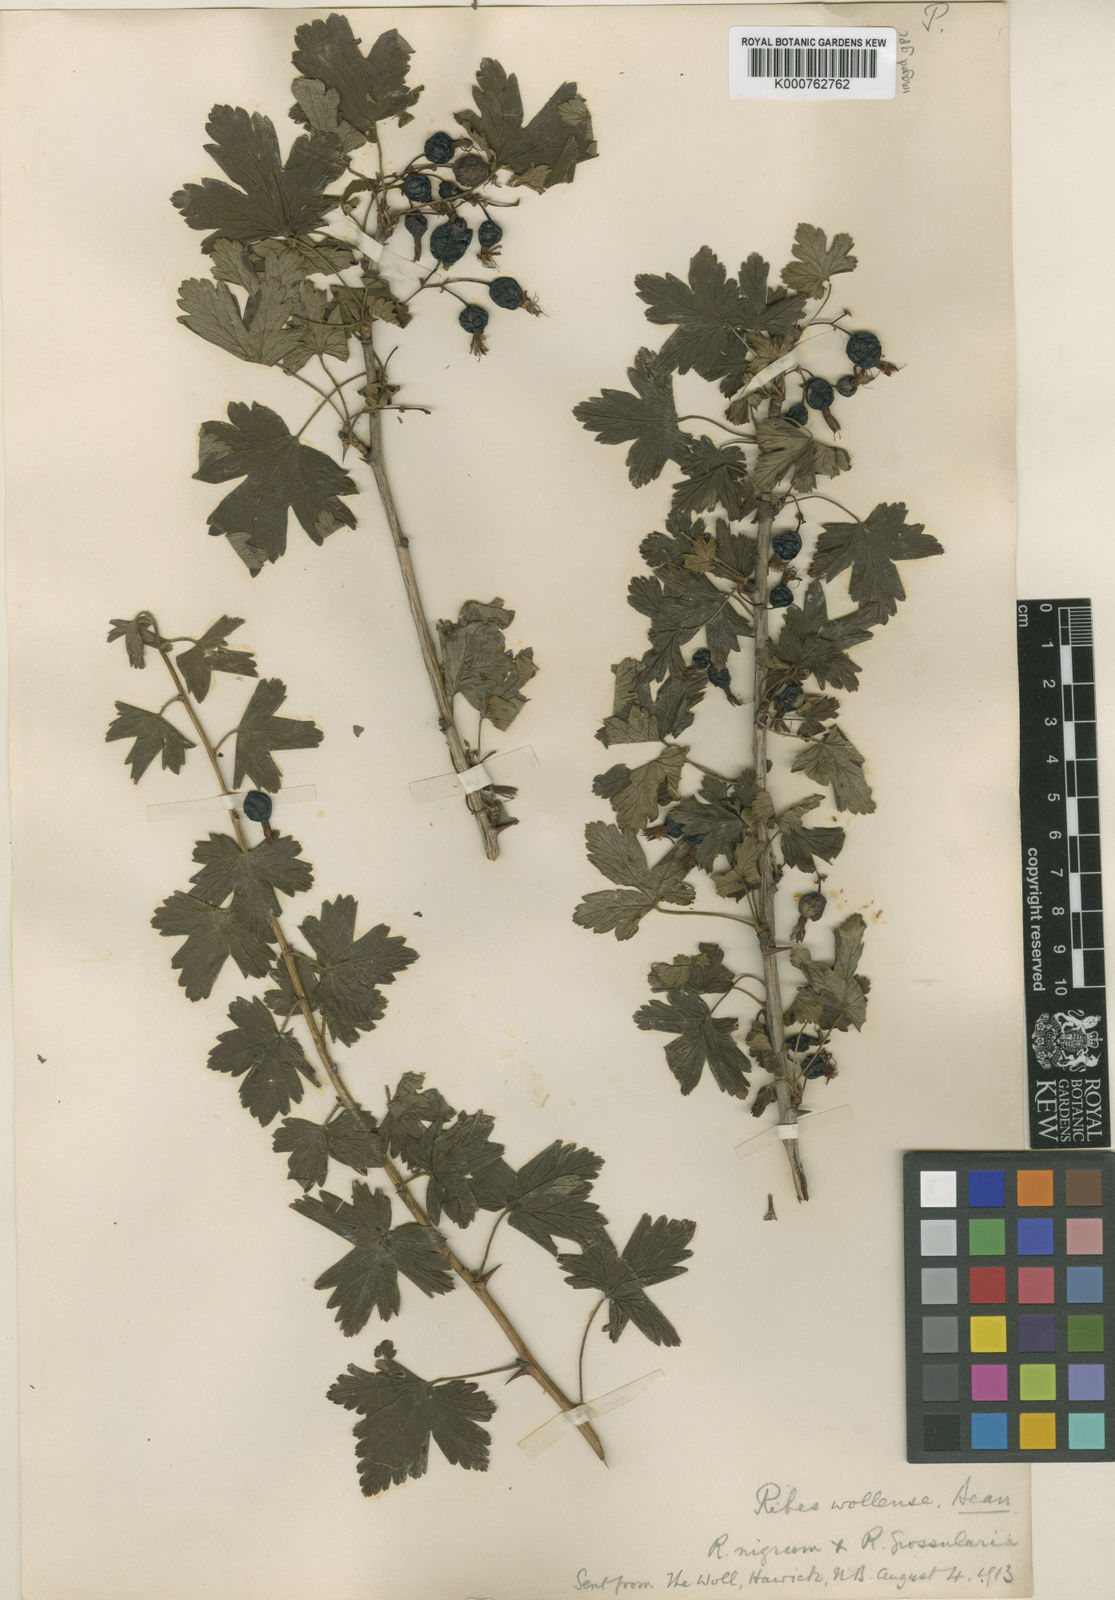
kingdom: Plantae
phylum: Tracheophyta
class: Magnoliopsida
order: Saxifragales
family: Grossulariaceae
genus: Ribes
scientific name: Ribes divaricatum
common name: Wild black gooseberry
